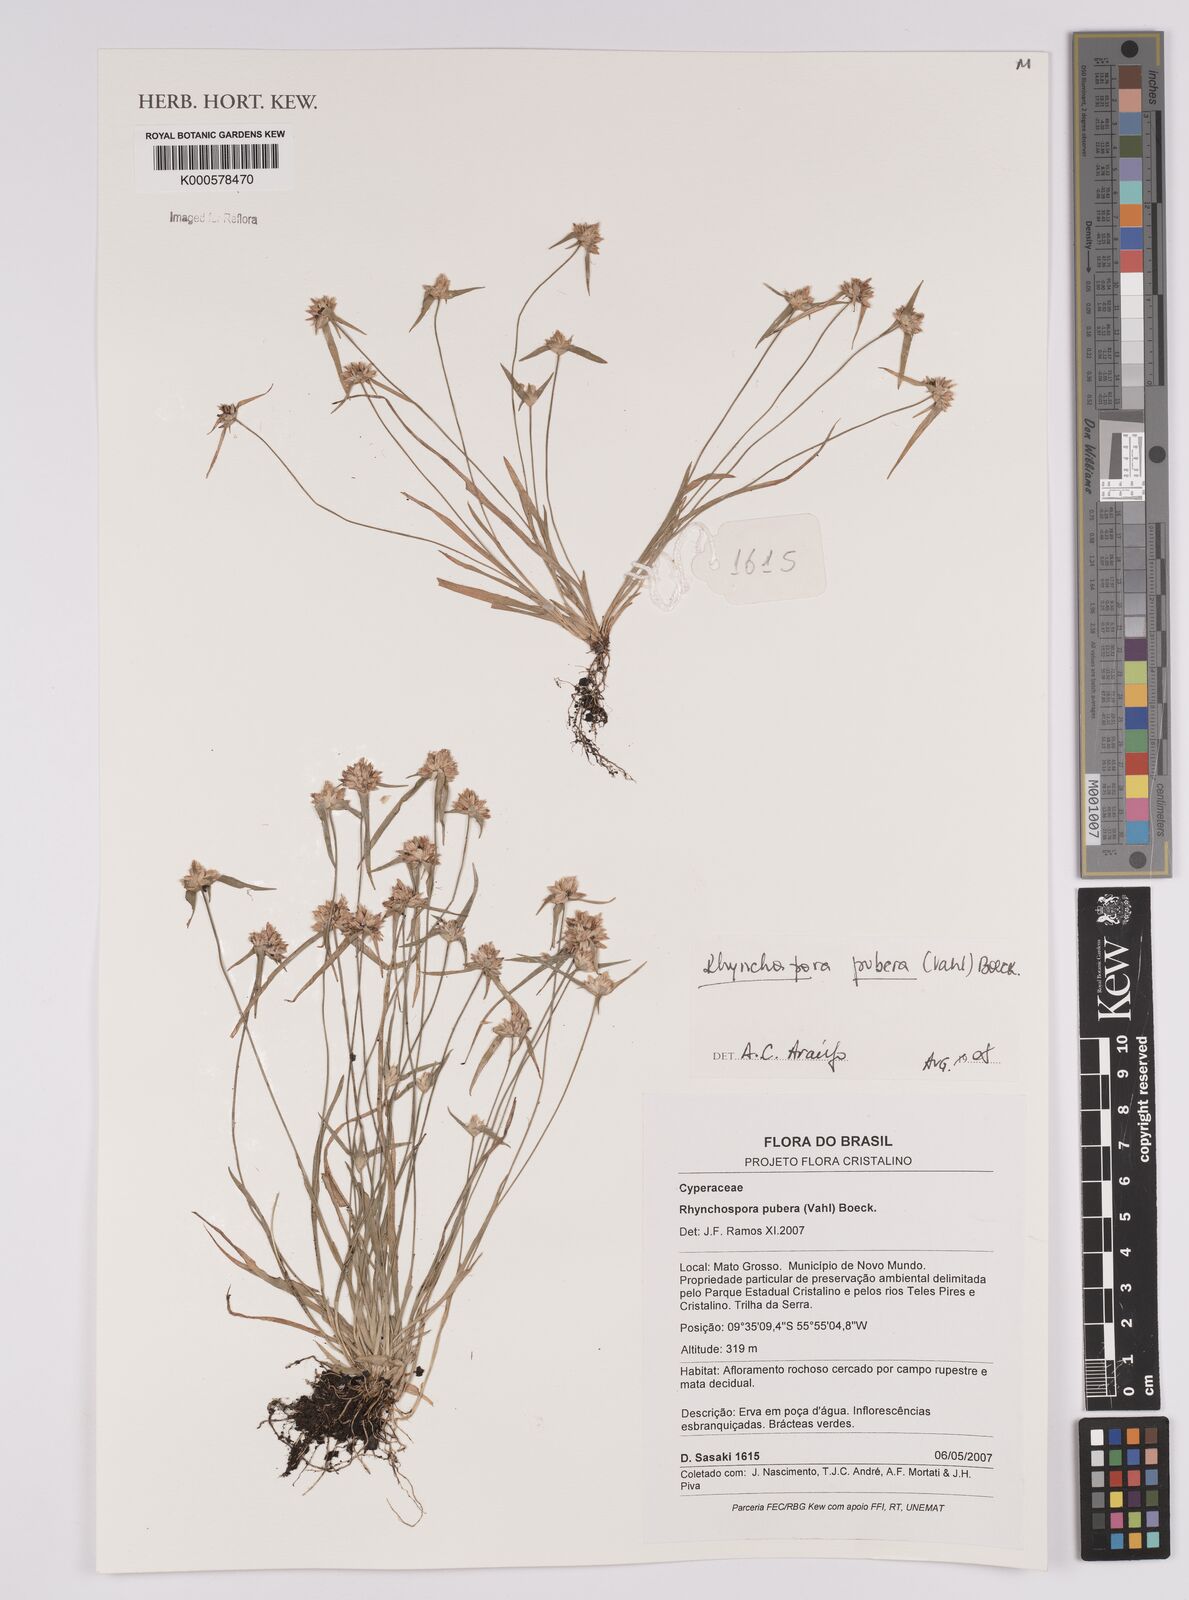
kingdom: Plantae
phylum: Tracheophyta
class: Liliopsida
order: Poales
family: Cyperaceae
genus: Rhynchospora
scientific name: Rhynchospora pubera
